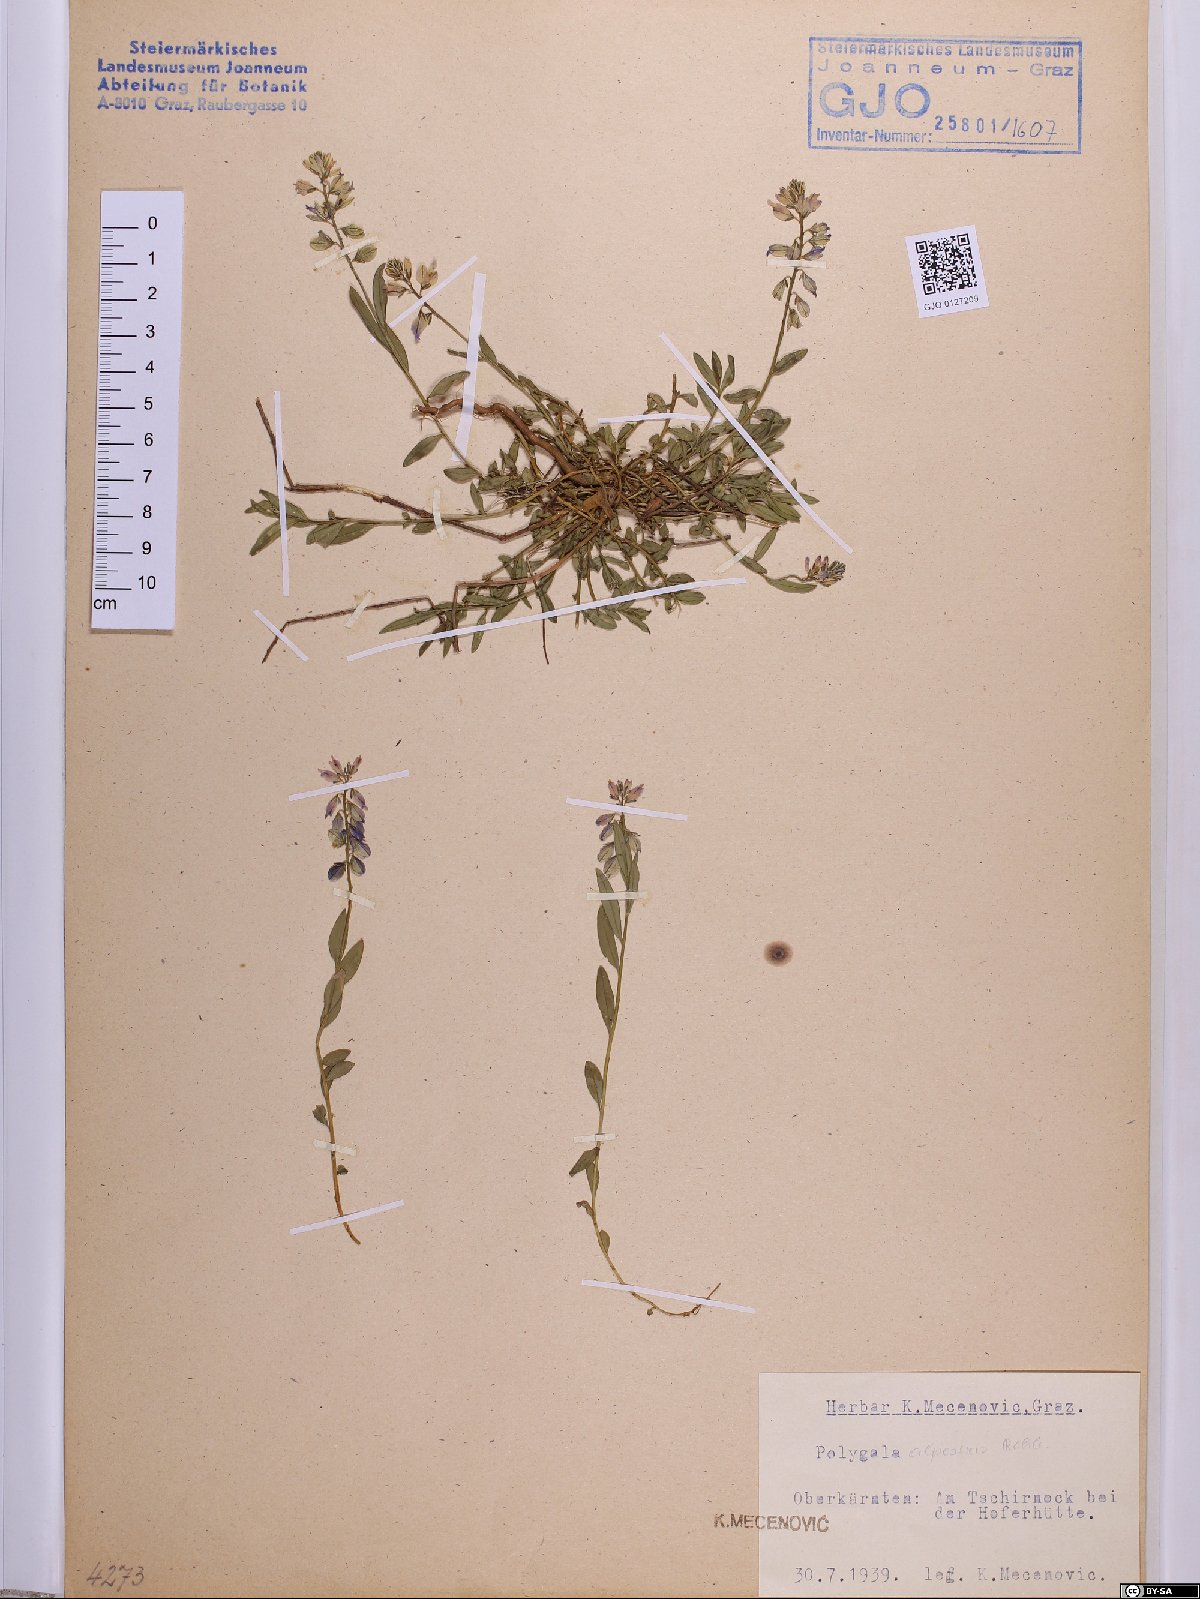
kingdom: Plantae
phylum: Tracheophyta
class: Magnoliopsida
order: Fabales
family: Polygalaceae
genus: Polygala
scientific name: Polygala alpestris
